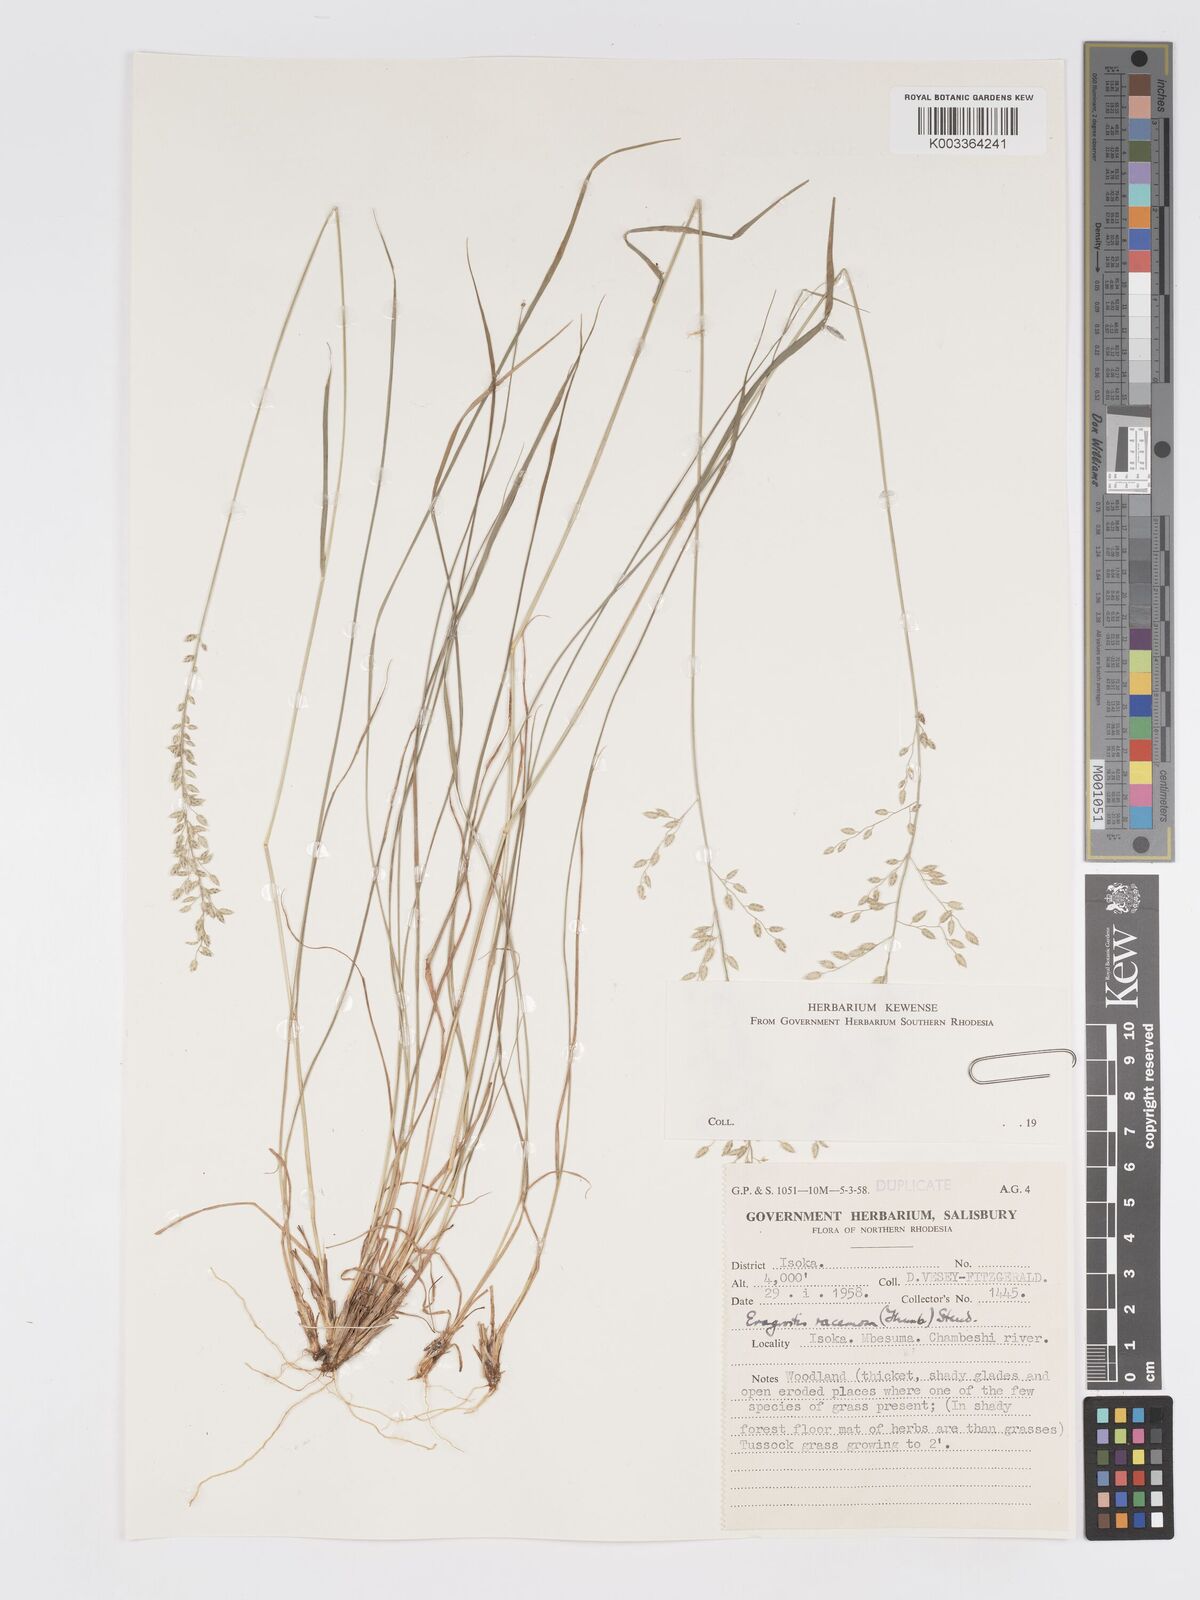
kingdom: Plantae
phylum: Tracheophyta
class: Liliopsida
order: Poales
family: Poaceae
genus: Eragrostis
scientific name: Eragrostis racemosa
